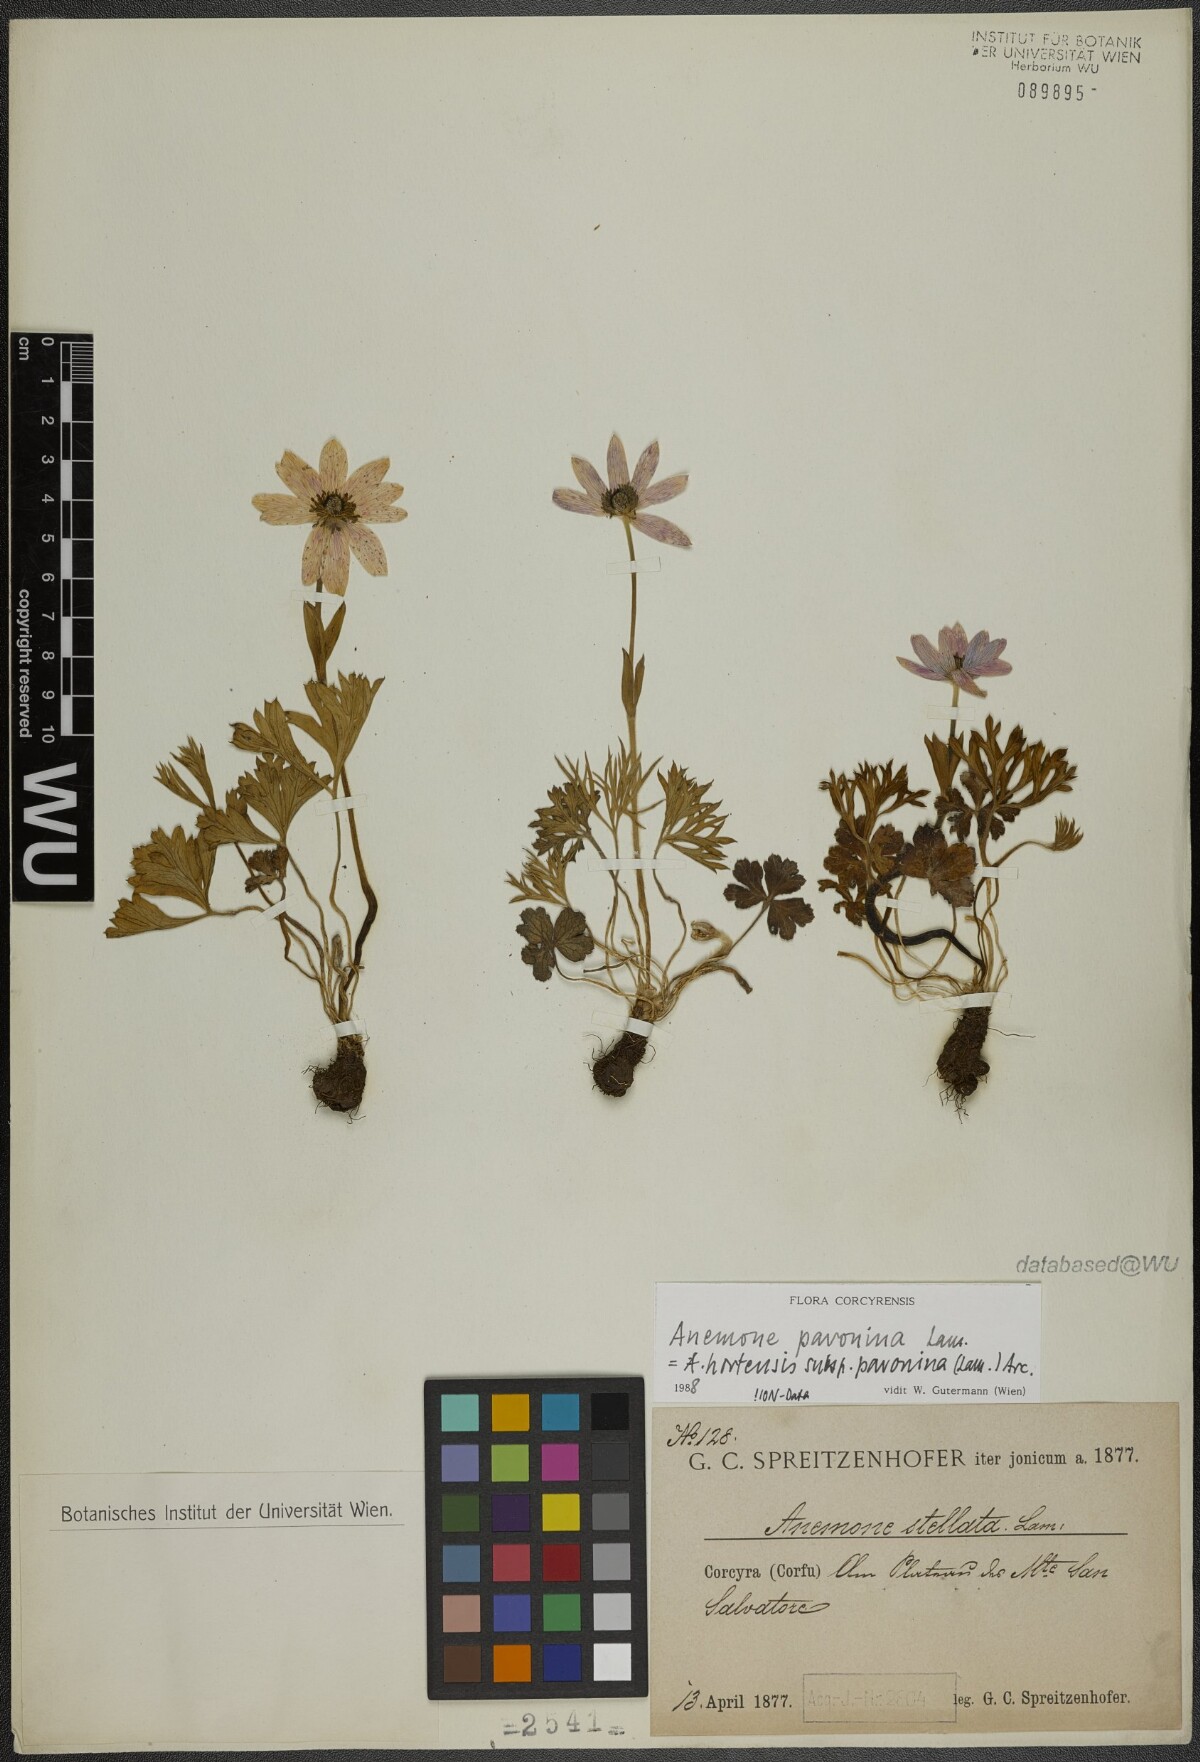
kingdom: Plantae
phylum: Tracheophyta
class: Magnoliopsida
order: Ranunculales
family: Ranunculaceae
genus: Anemone
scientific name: Anemone pavonina
